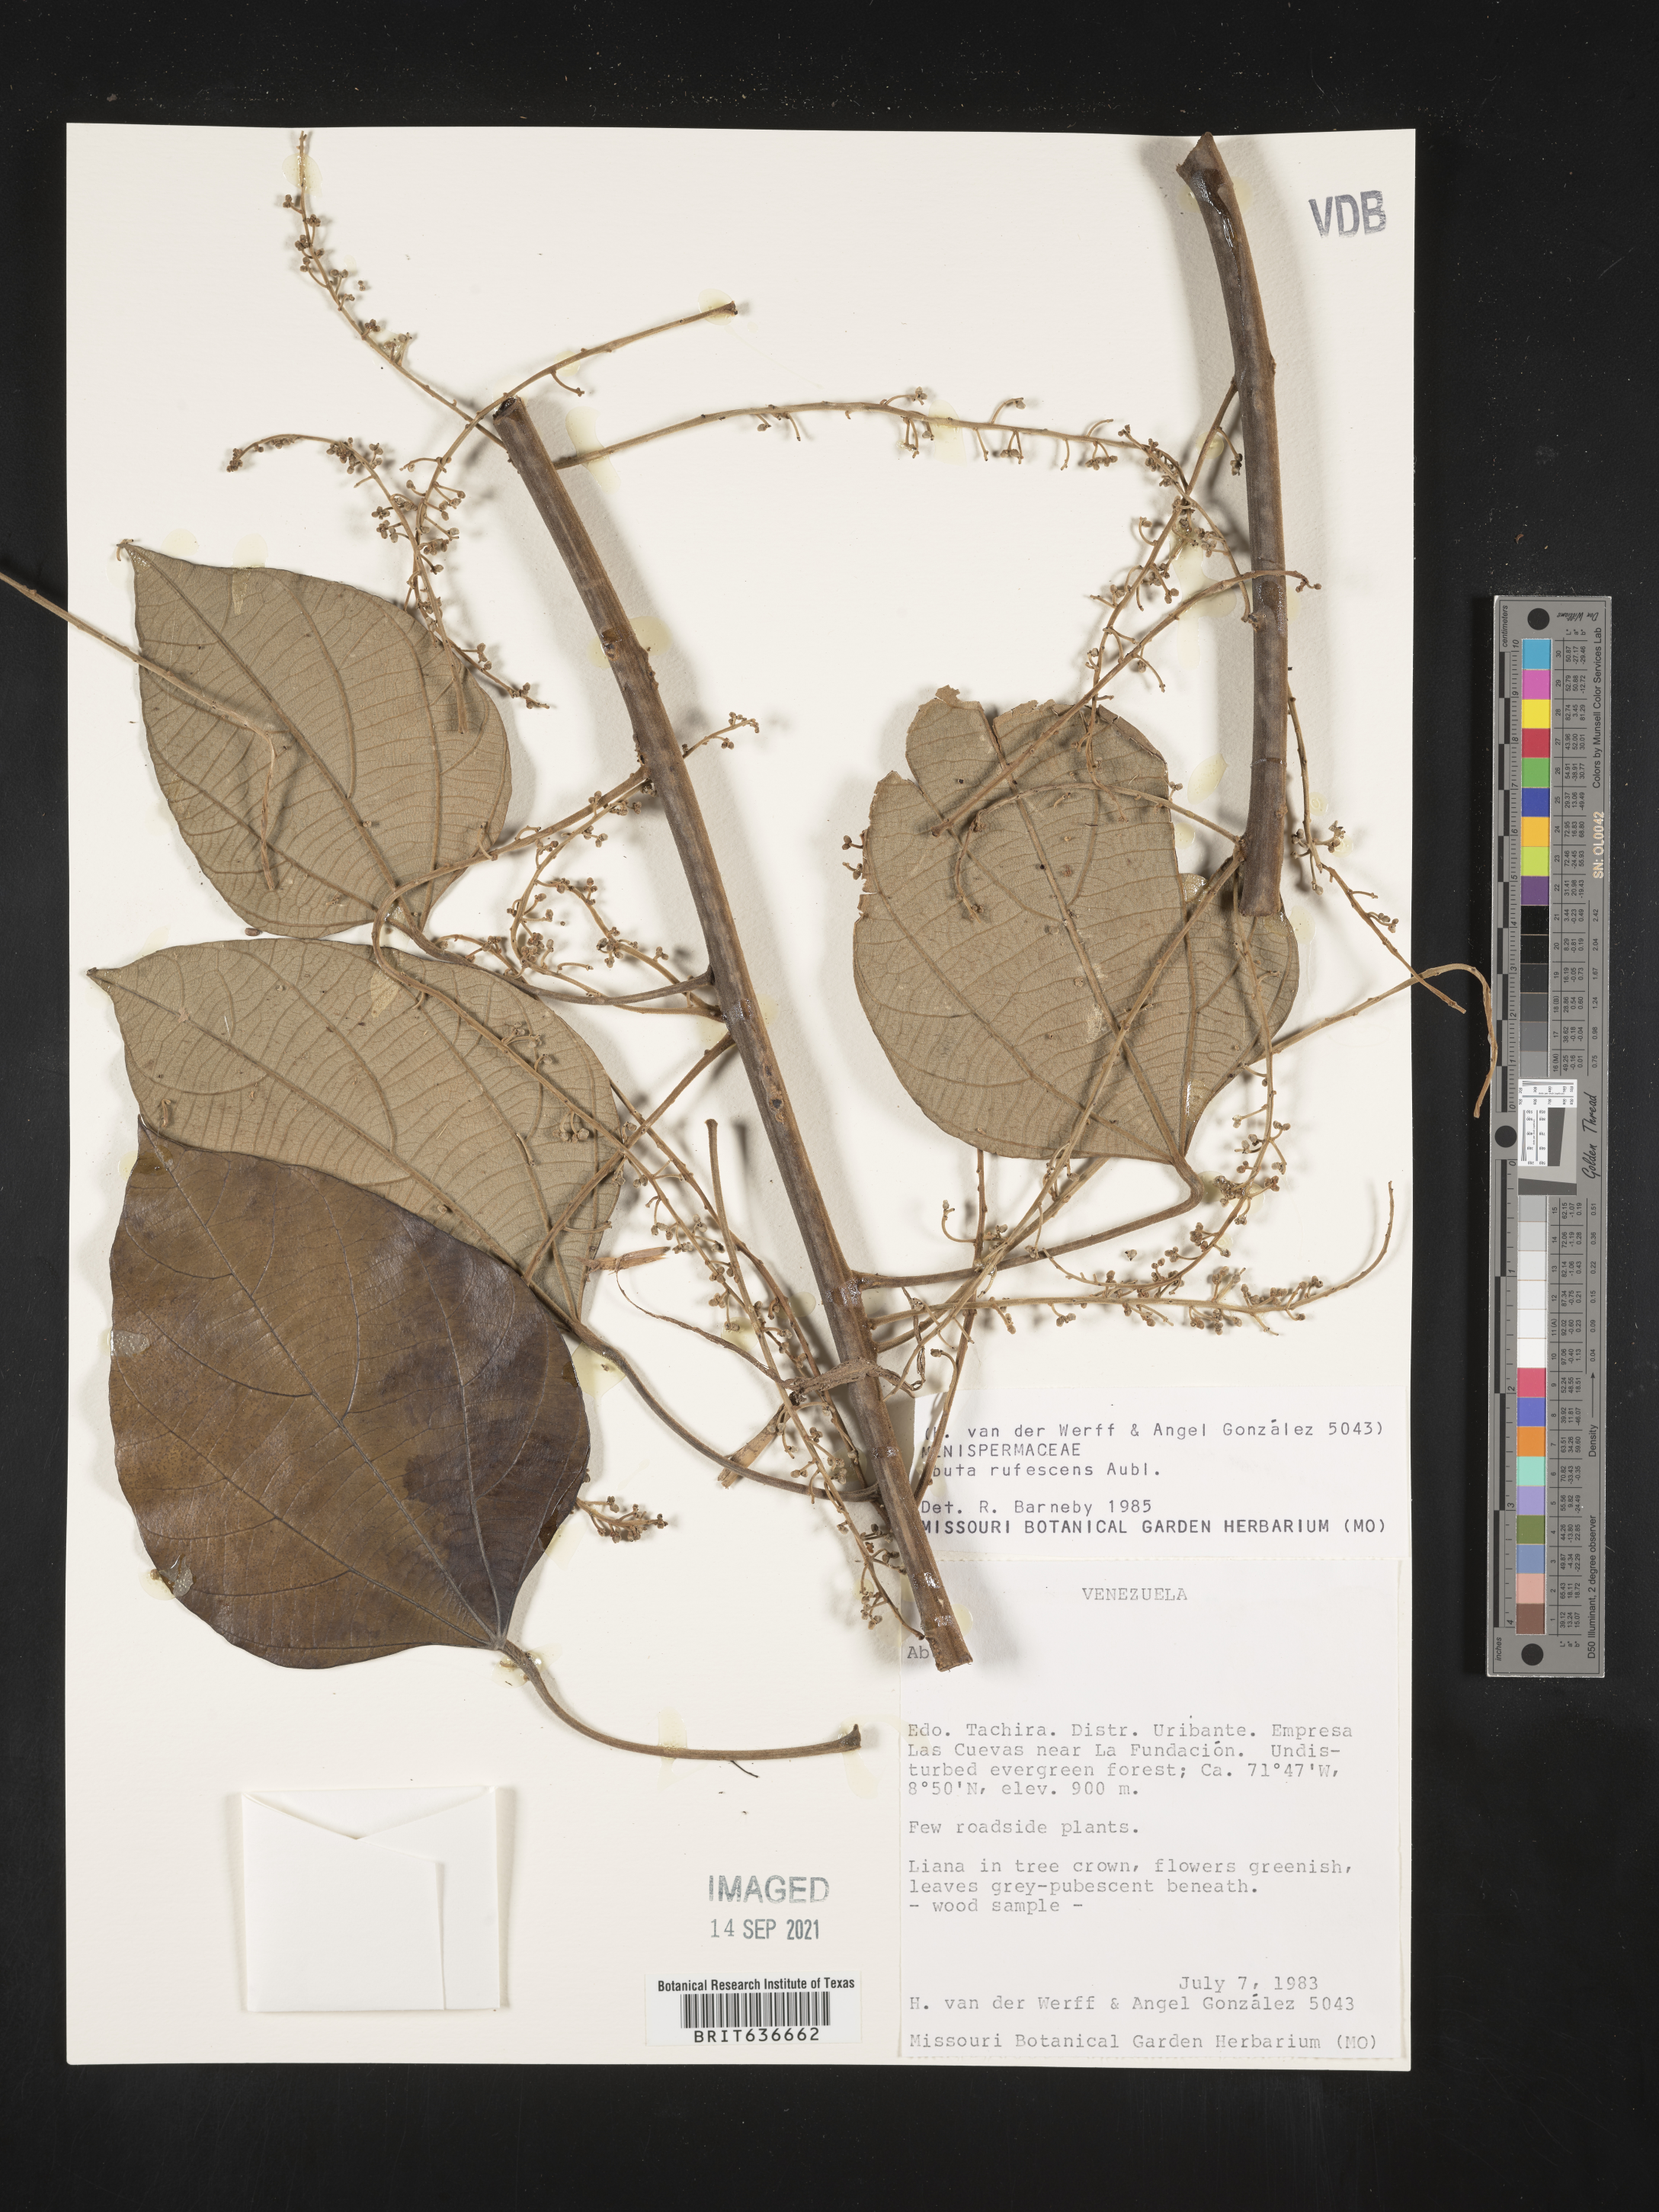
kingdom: Plantae
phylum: Tracheophyta
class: Magnoliopsida
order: Ranunculales
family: Menispermaceae
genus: Abuta
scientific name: Abuta
